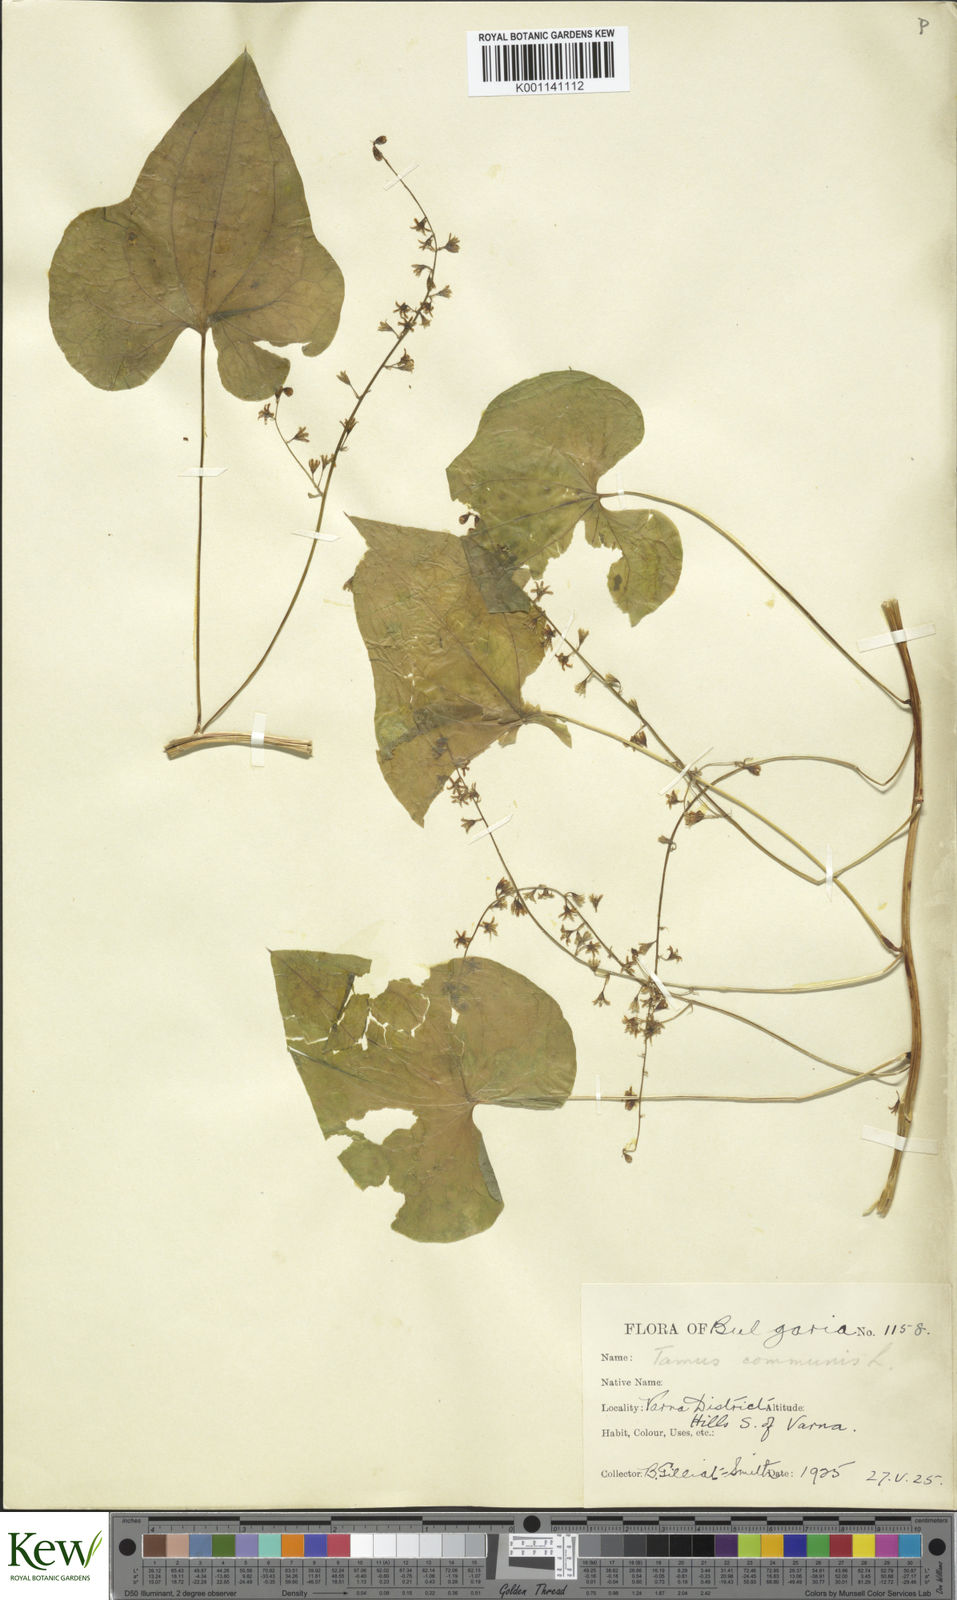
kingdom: Plantae
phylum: Tracheophyta
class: Liliopsida
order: Dioscoreales
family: Dioscoreaceae
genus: Dioscorea
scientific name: Dioscorea communis
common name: Black-bindweed
